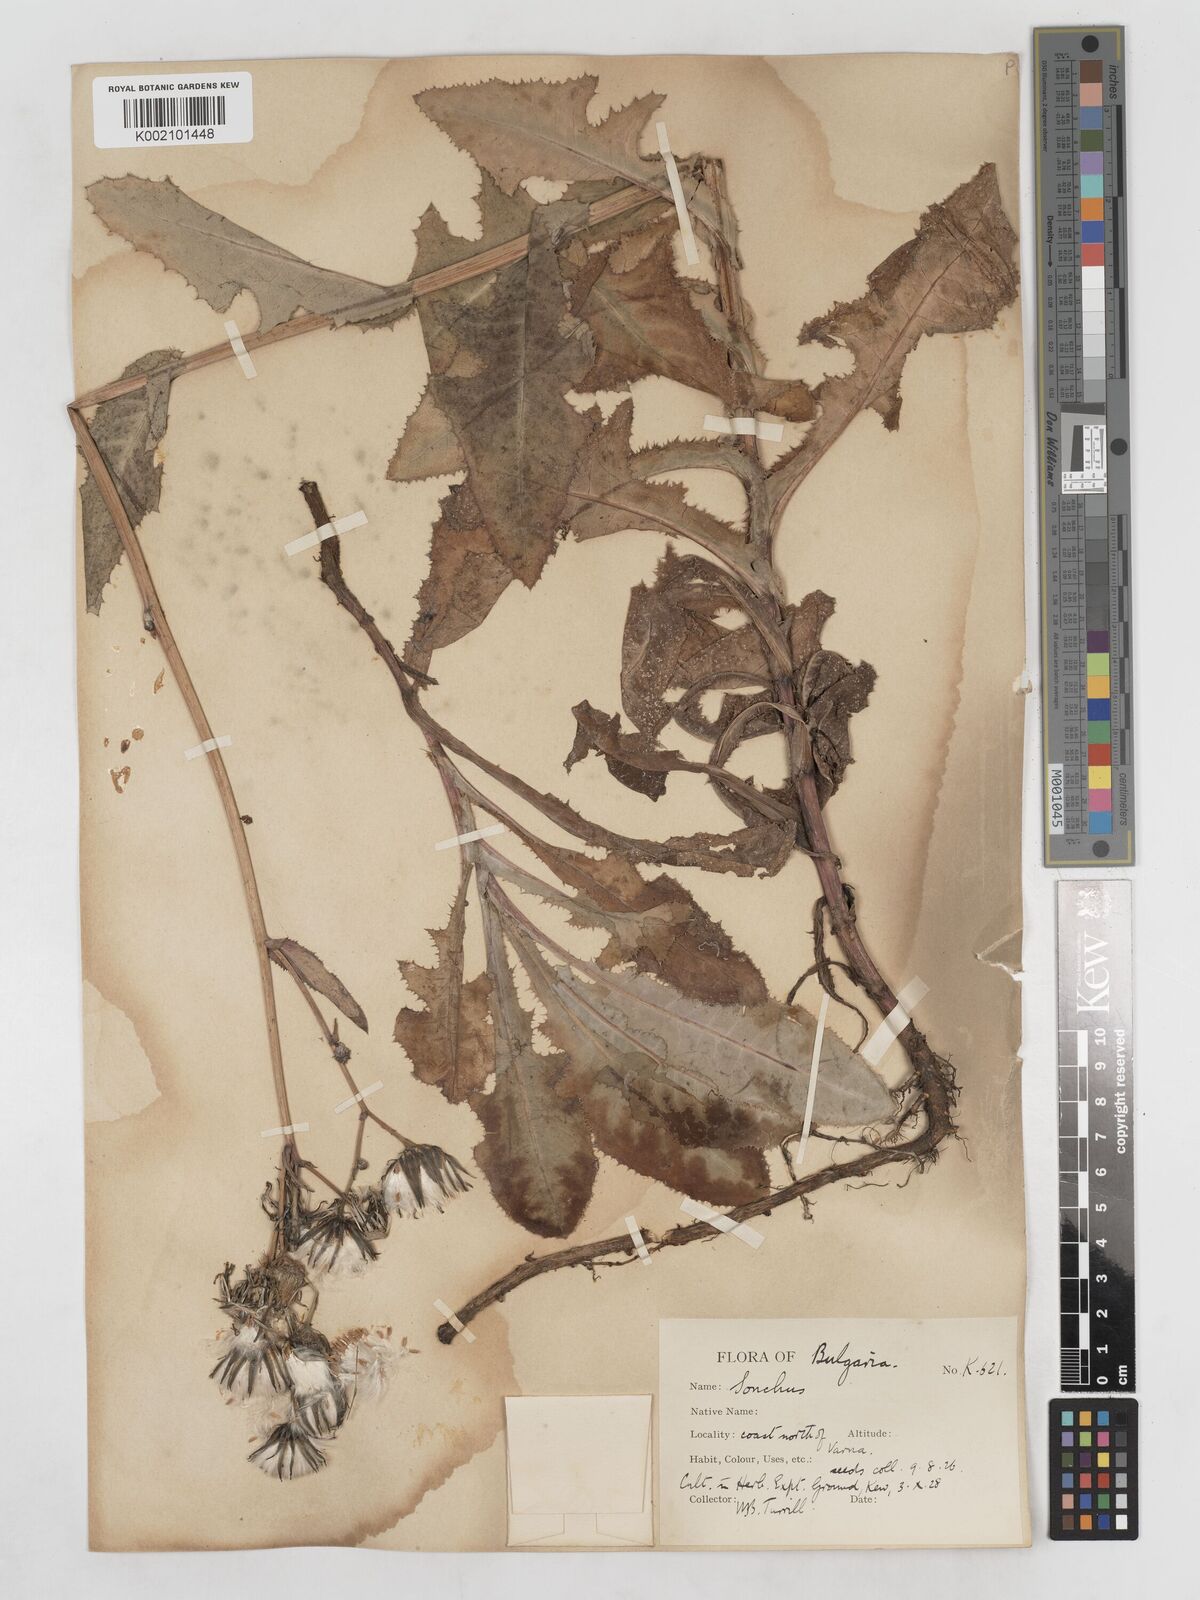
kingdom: Plantae
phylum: Tracheophyta
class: Magnoliopsida
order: Asterales
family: Asteraceae
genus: Sonchus
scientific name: Sonchus arvensis
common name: Perennial sow-thistle
